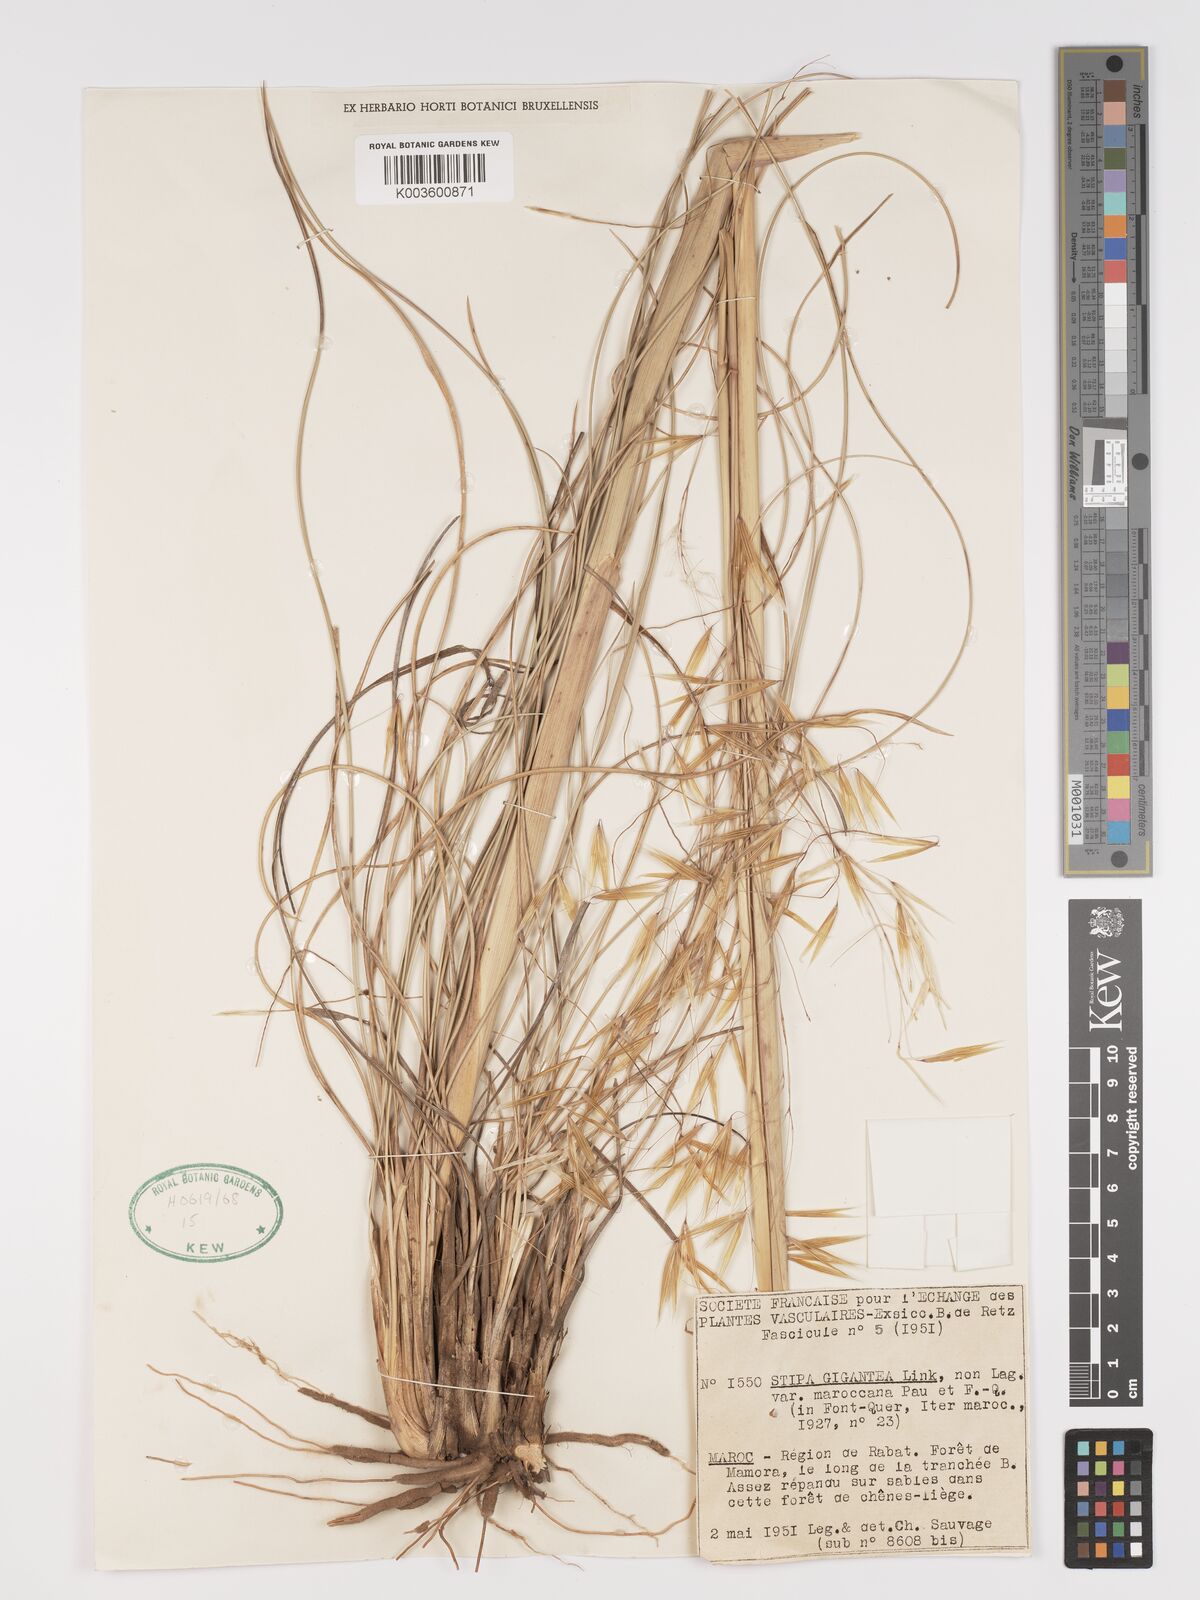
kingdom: Plantae
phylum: Tracheophyta
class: Liliopsida
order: Poales
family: Poaceae
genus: Stipa
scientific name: Stipa lagascae
